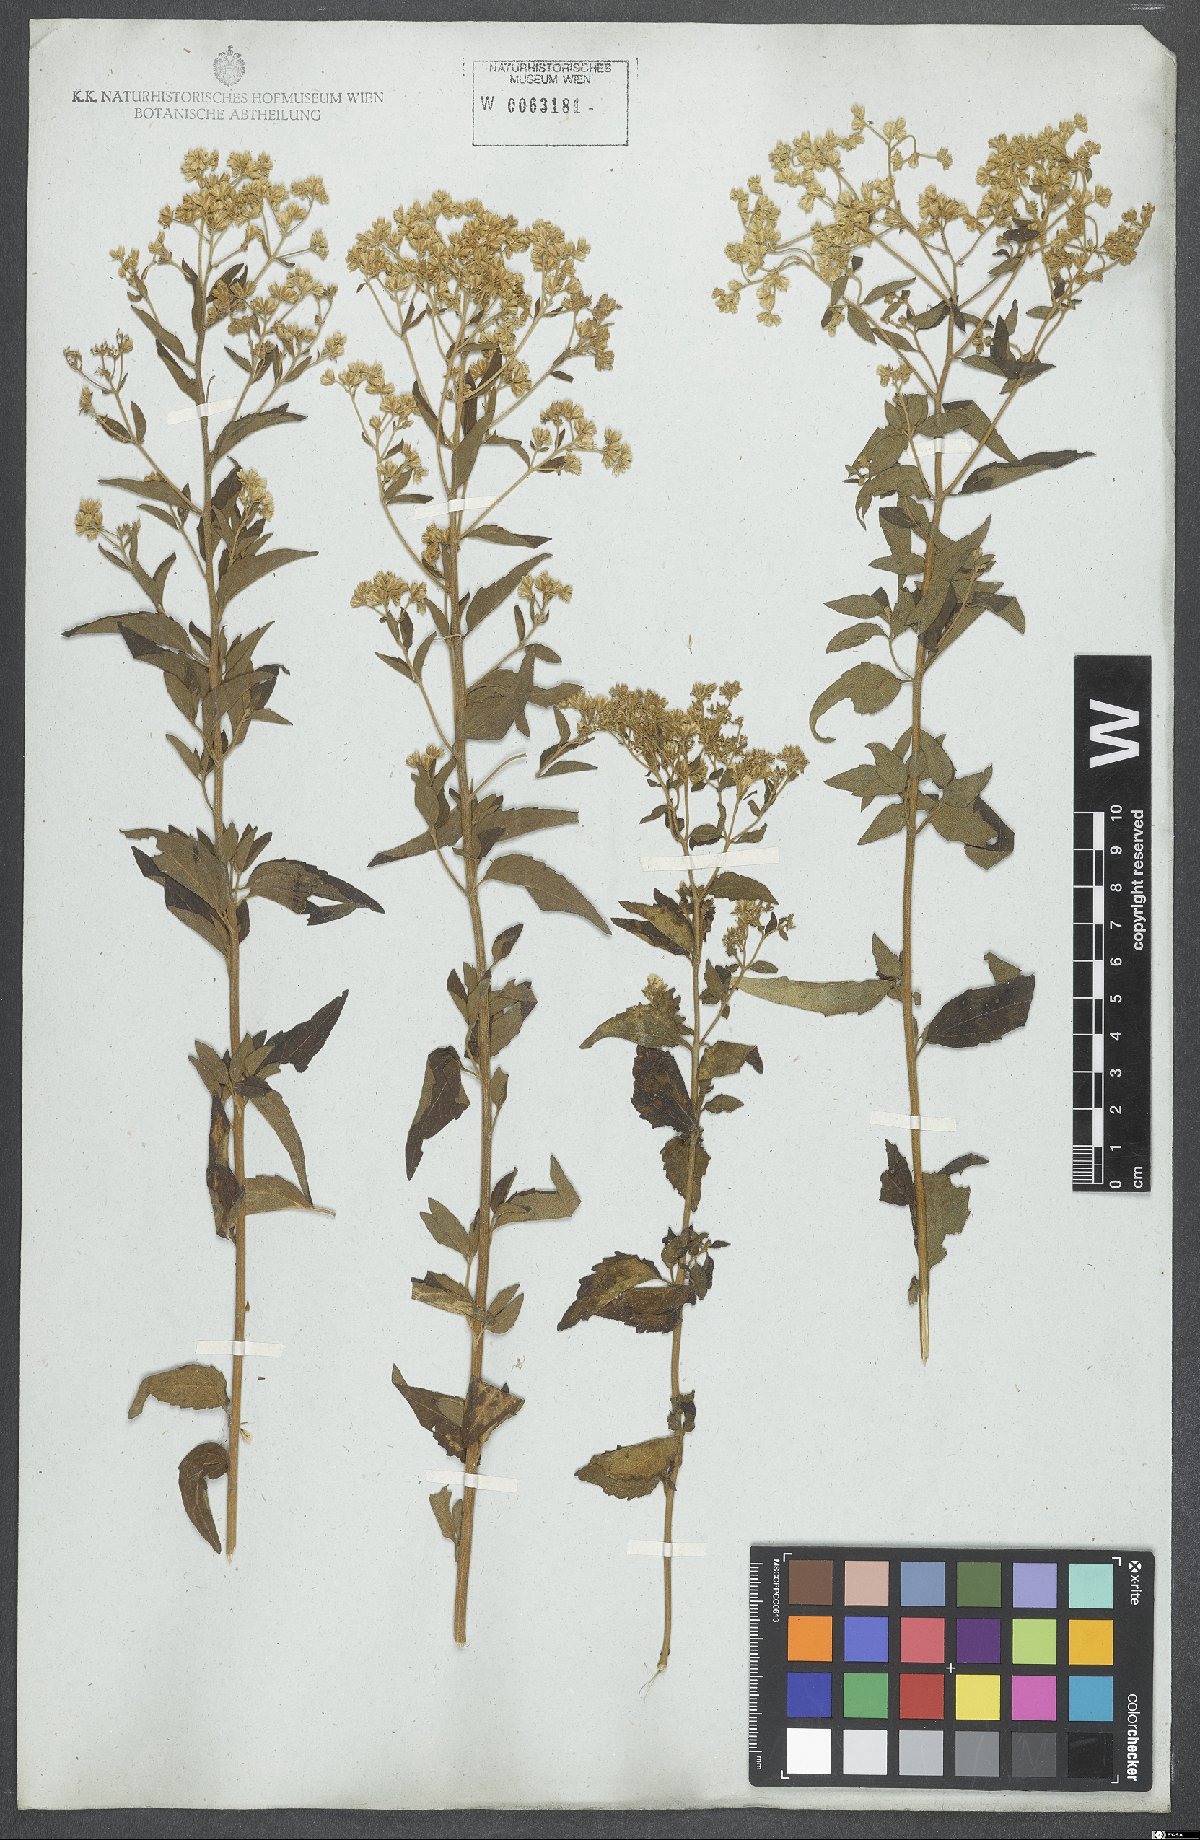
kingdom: Plantae
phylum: Tracheophyta
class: Magnoliopsida
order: Asterales
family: Asteraceae
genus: Eupatorium
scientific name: Eupatorium
